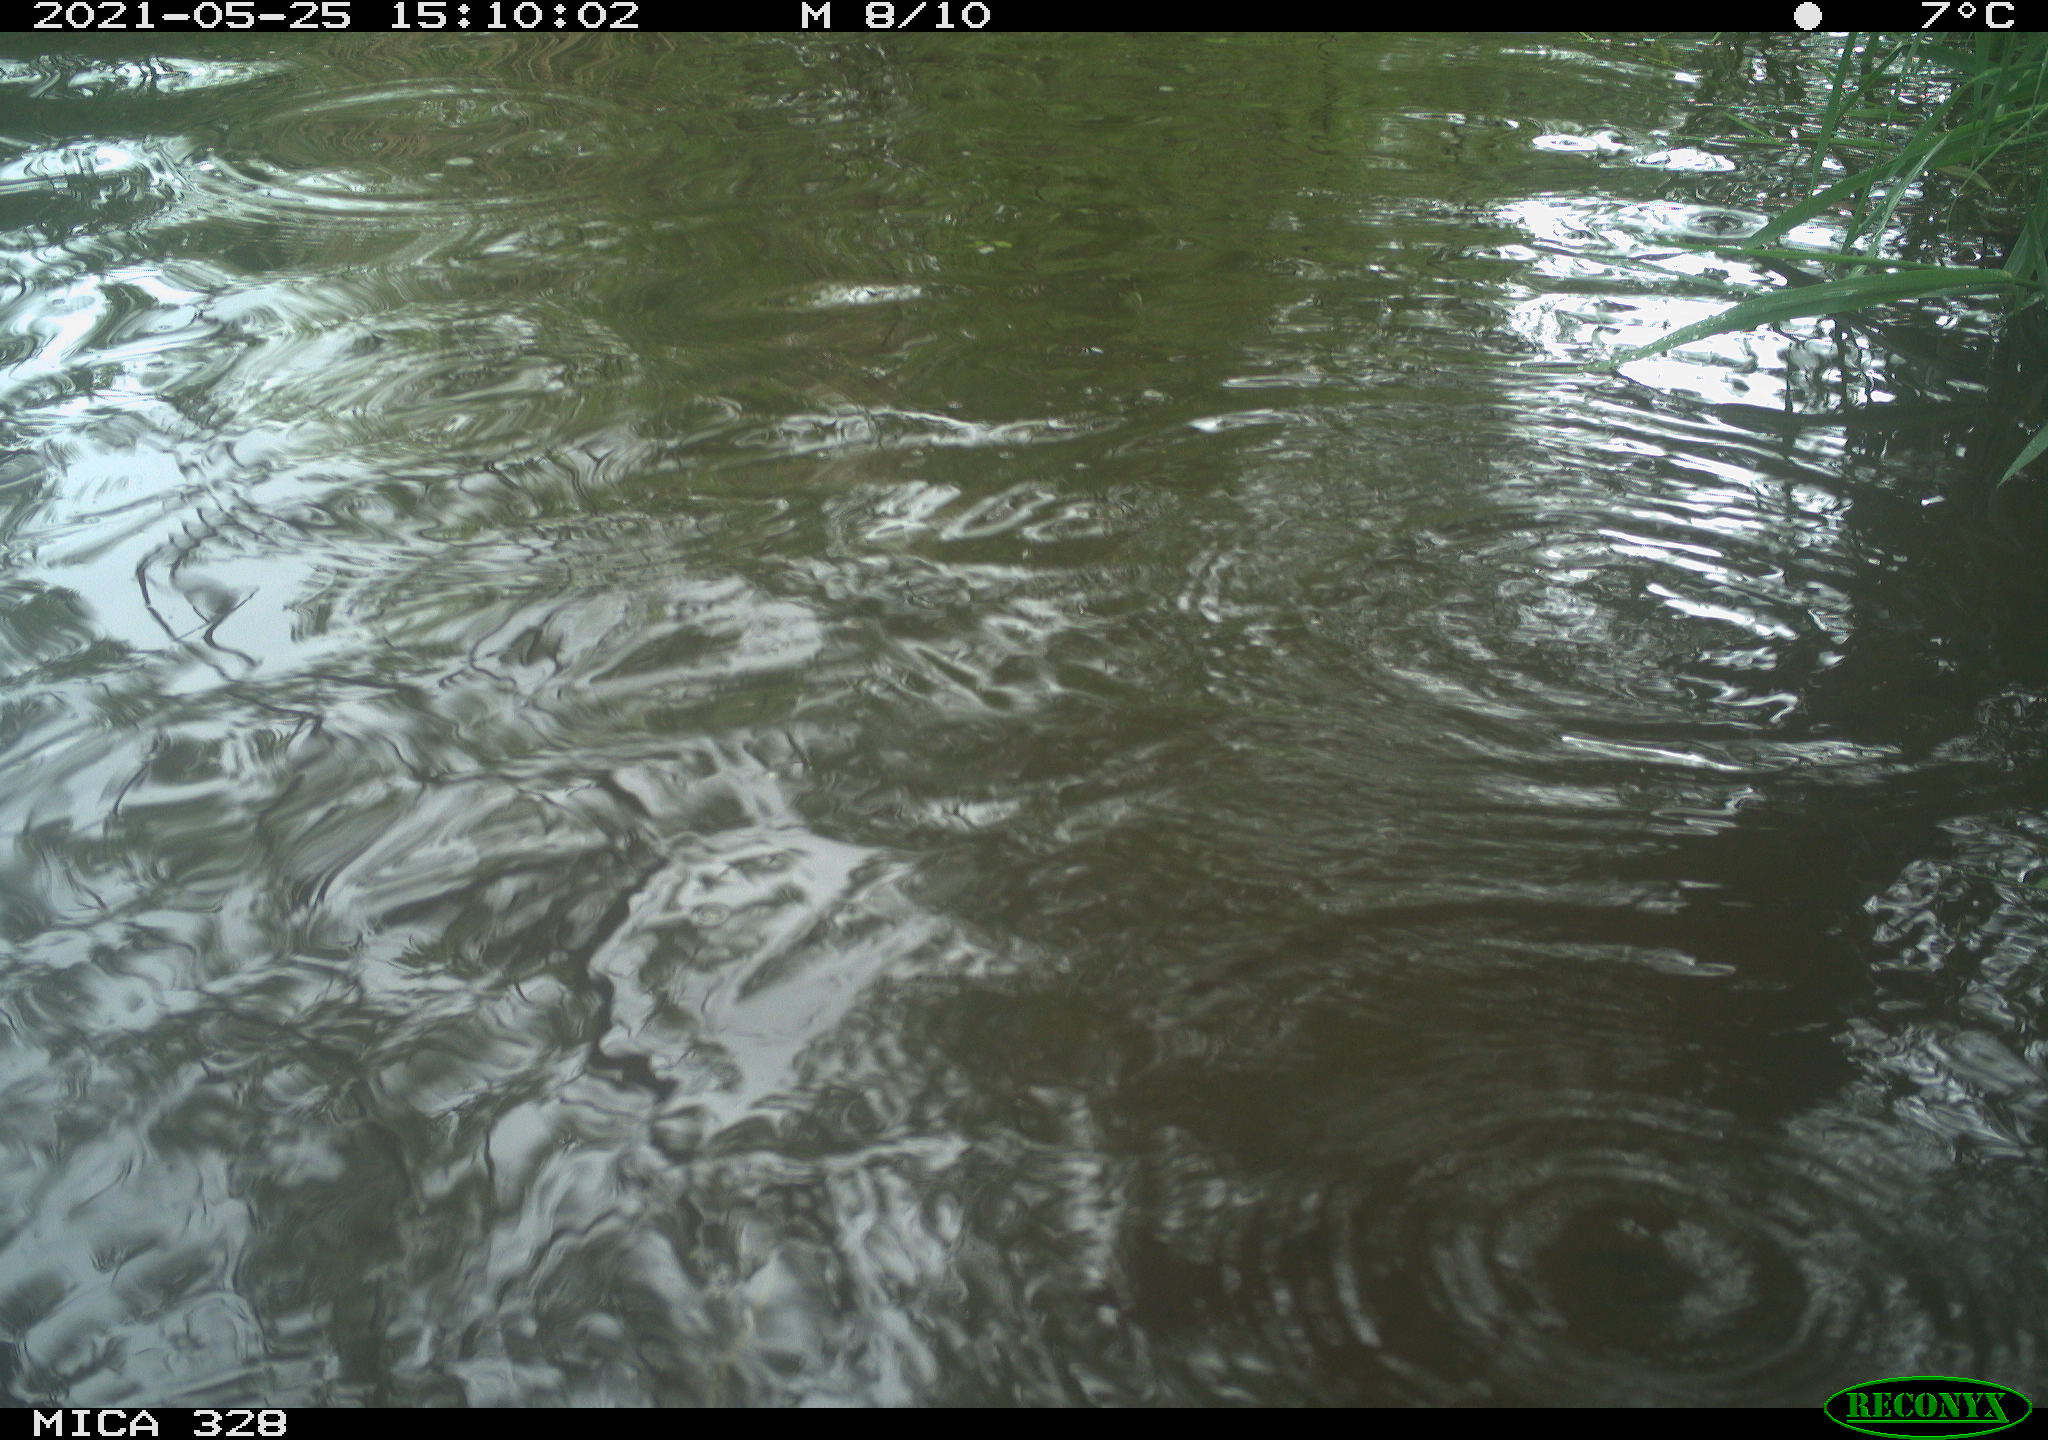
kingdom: Animalia
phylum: Chordata
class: Mammalia
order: Rodentia
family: Cricetidae
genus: Ondatra
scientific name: Ondatra zibethicus
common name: Muskrat
